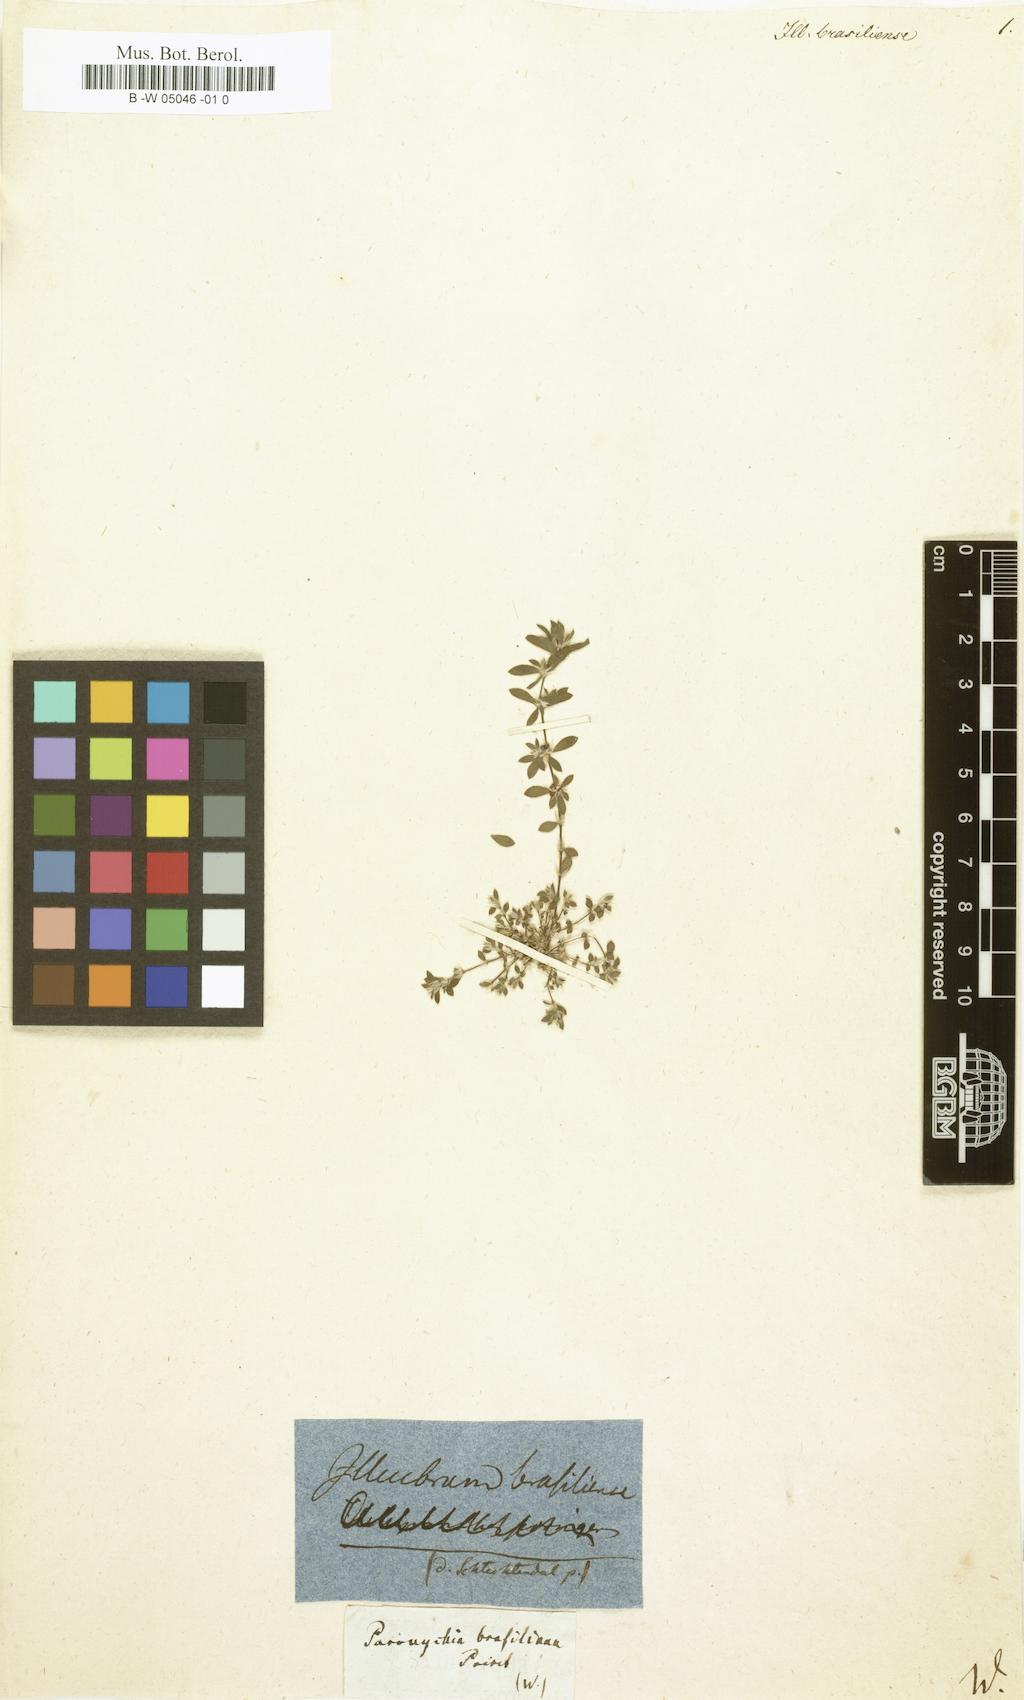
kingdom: Plantae
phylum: Tracheophyta
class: Magnoliopsida
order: Caryophyllales
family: Caryophyllaceae
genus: Illecebrum
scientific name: Illecebrum
